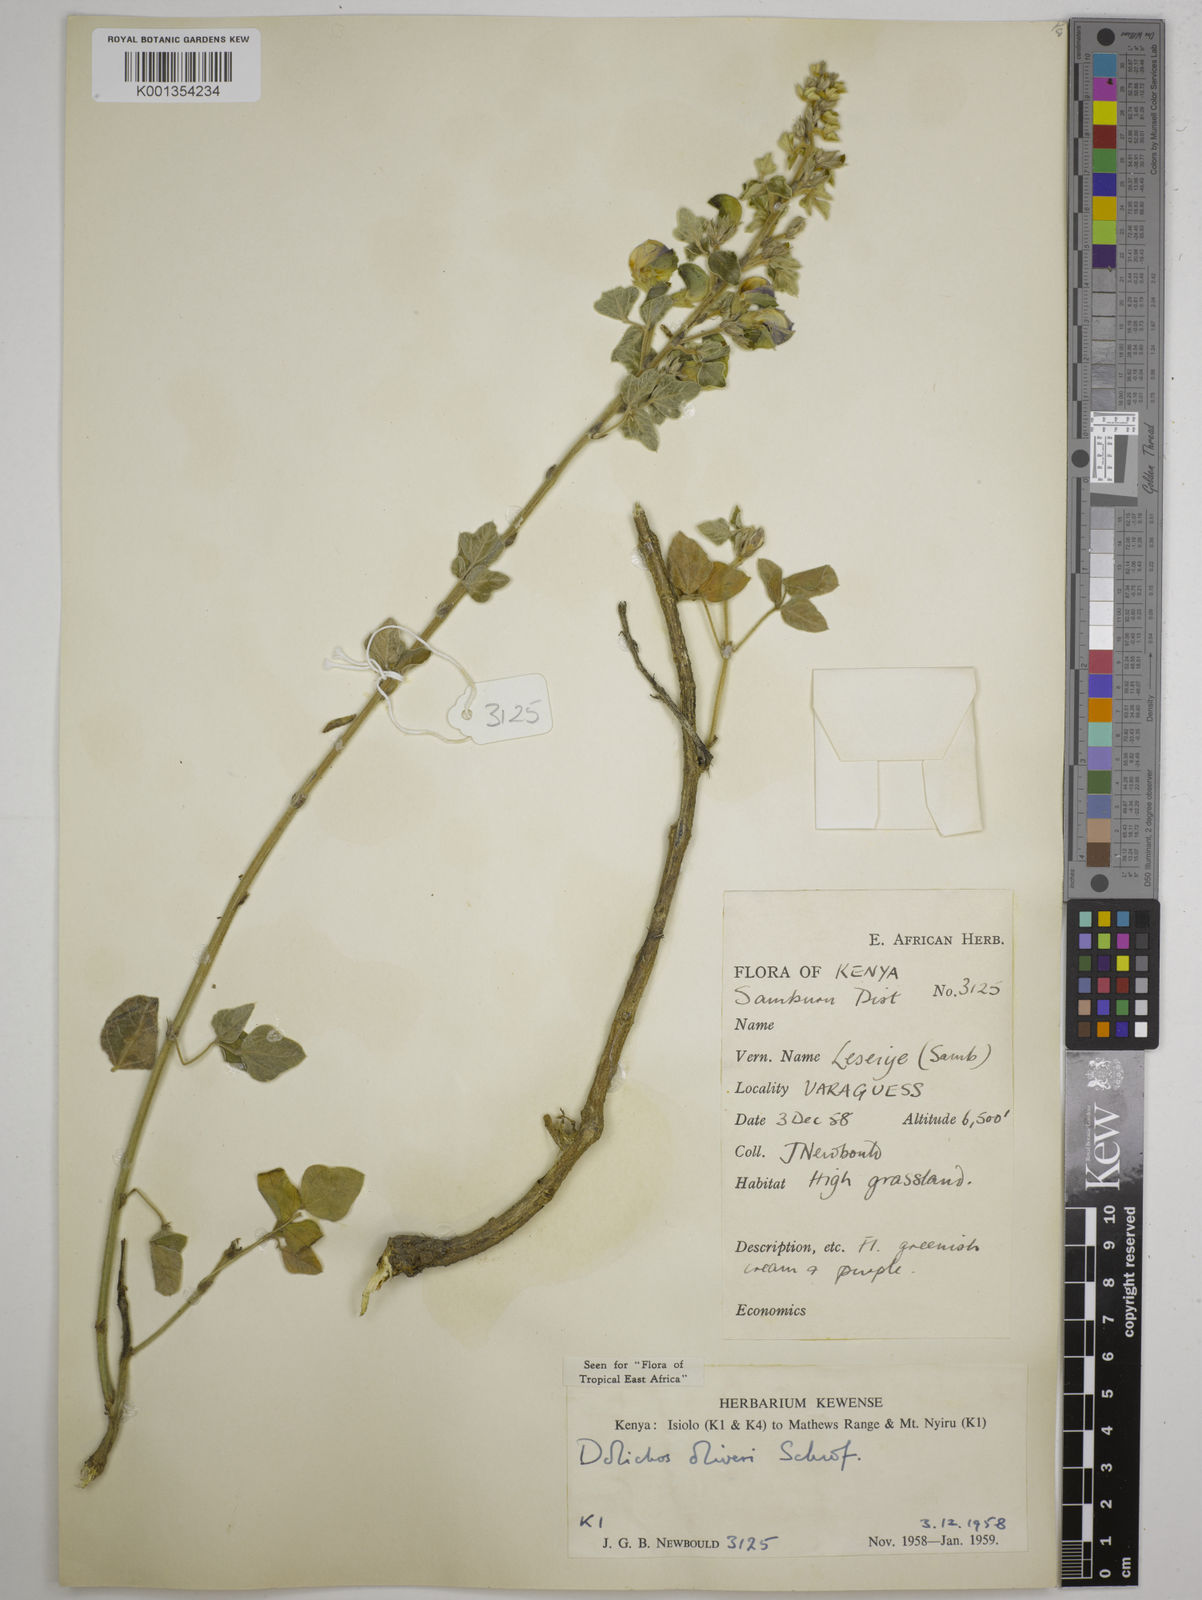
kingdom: Plantae
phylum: Tracheophyta
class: Magnoliopsida
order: Fabales
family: Fabaceae
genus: Dolichos
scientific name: Dolichos oliveri
